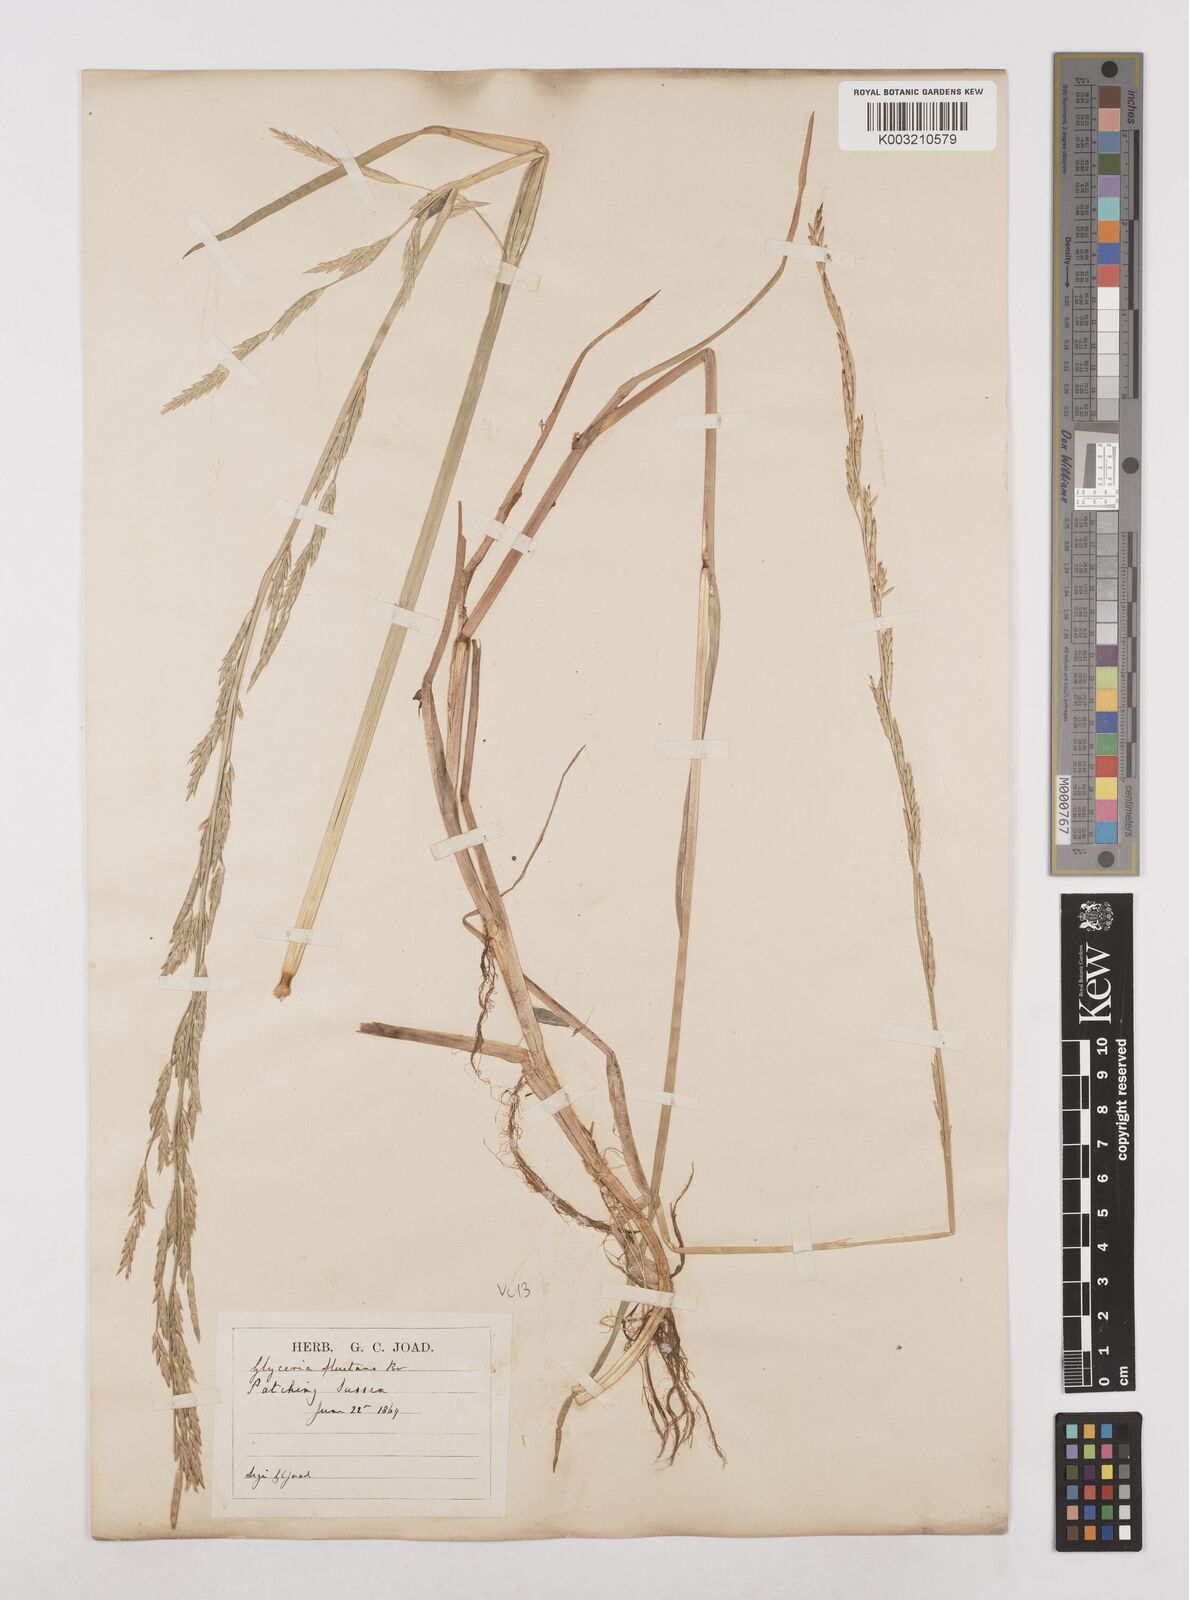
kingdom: Plantae
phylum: Tracheophyta
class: Liliopsida
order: Poales
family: Poaceae
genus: Glyceria
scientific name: Glyceria fluitans
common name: Floating sweet-grass
